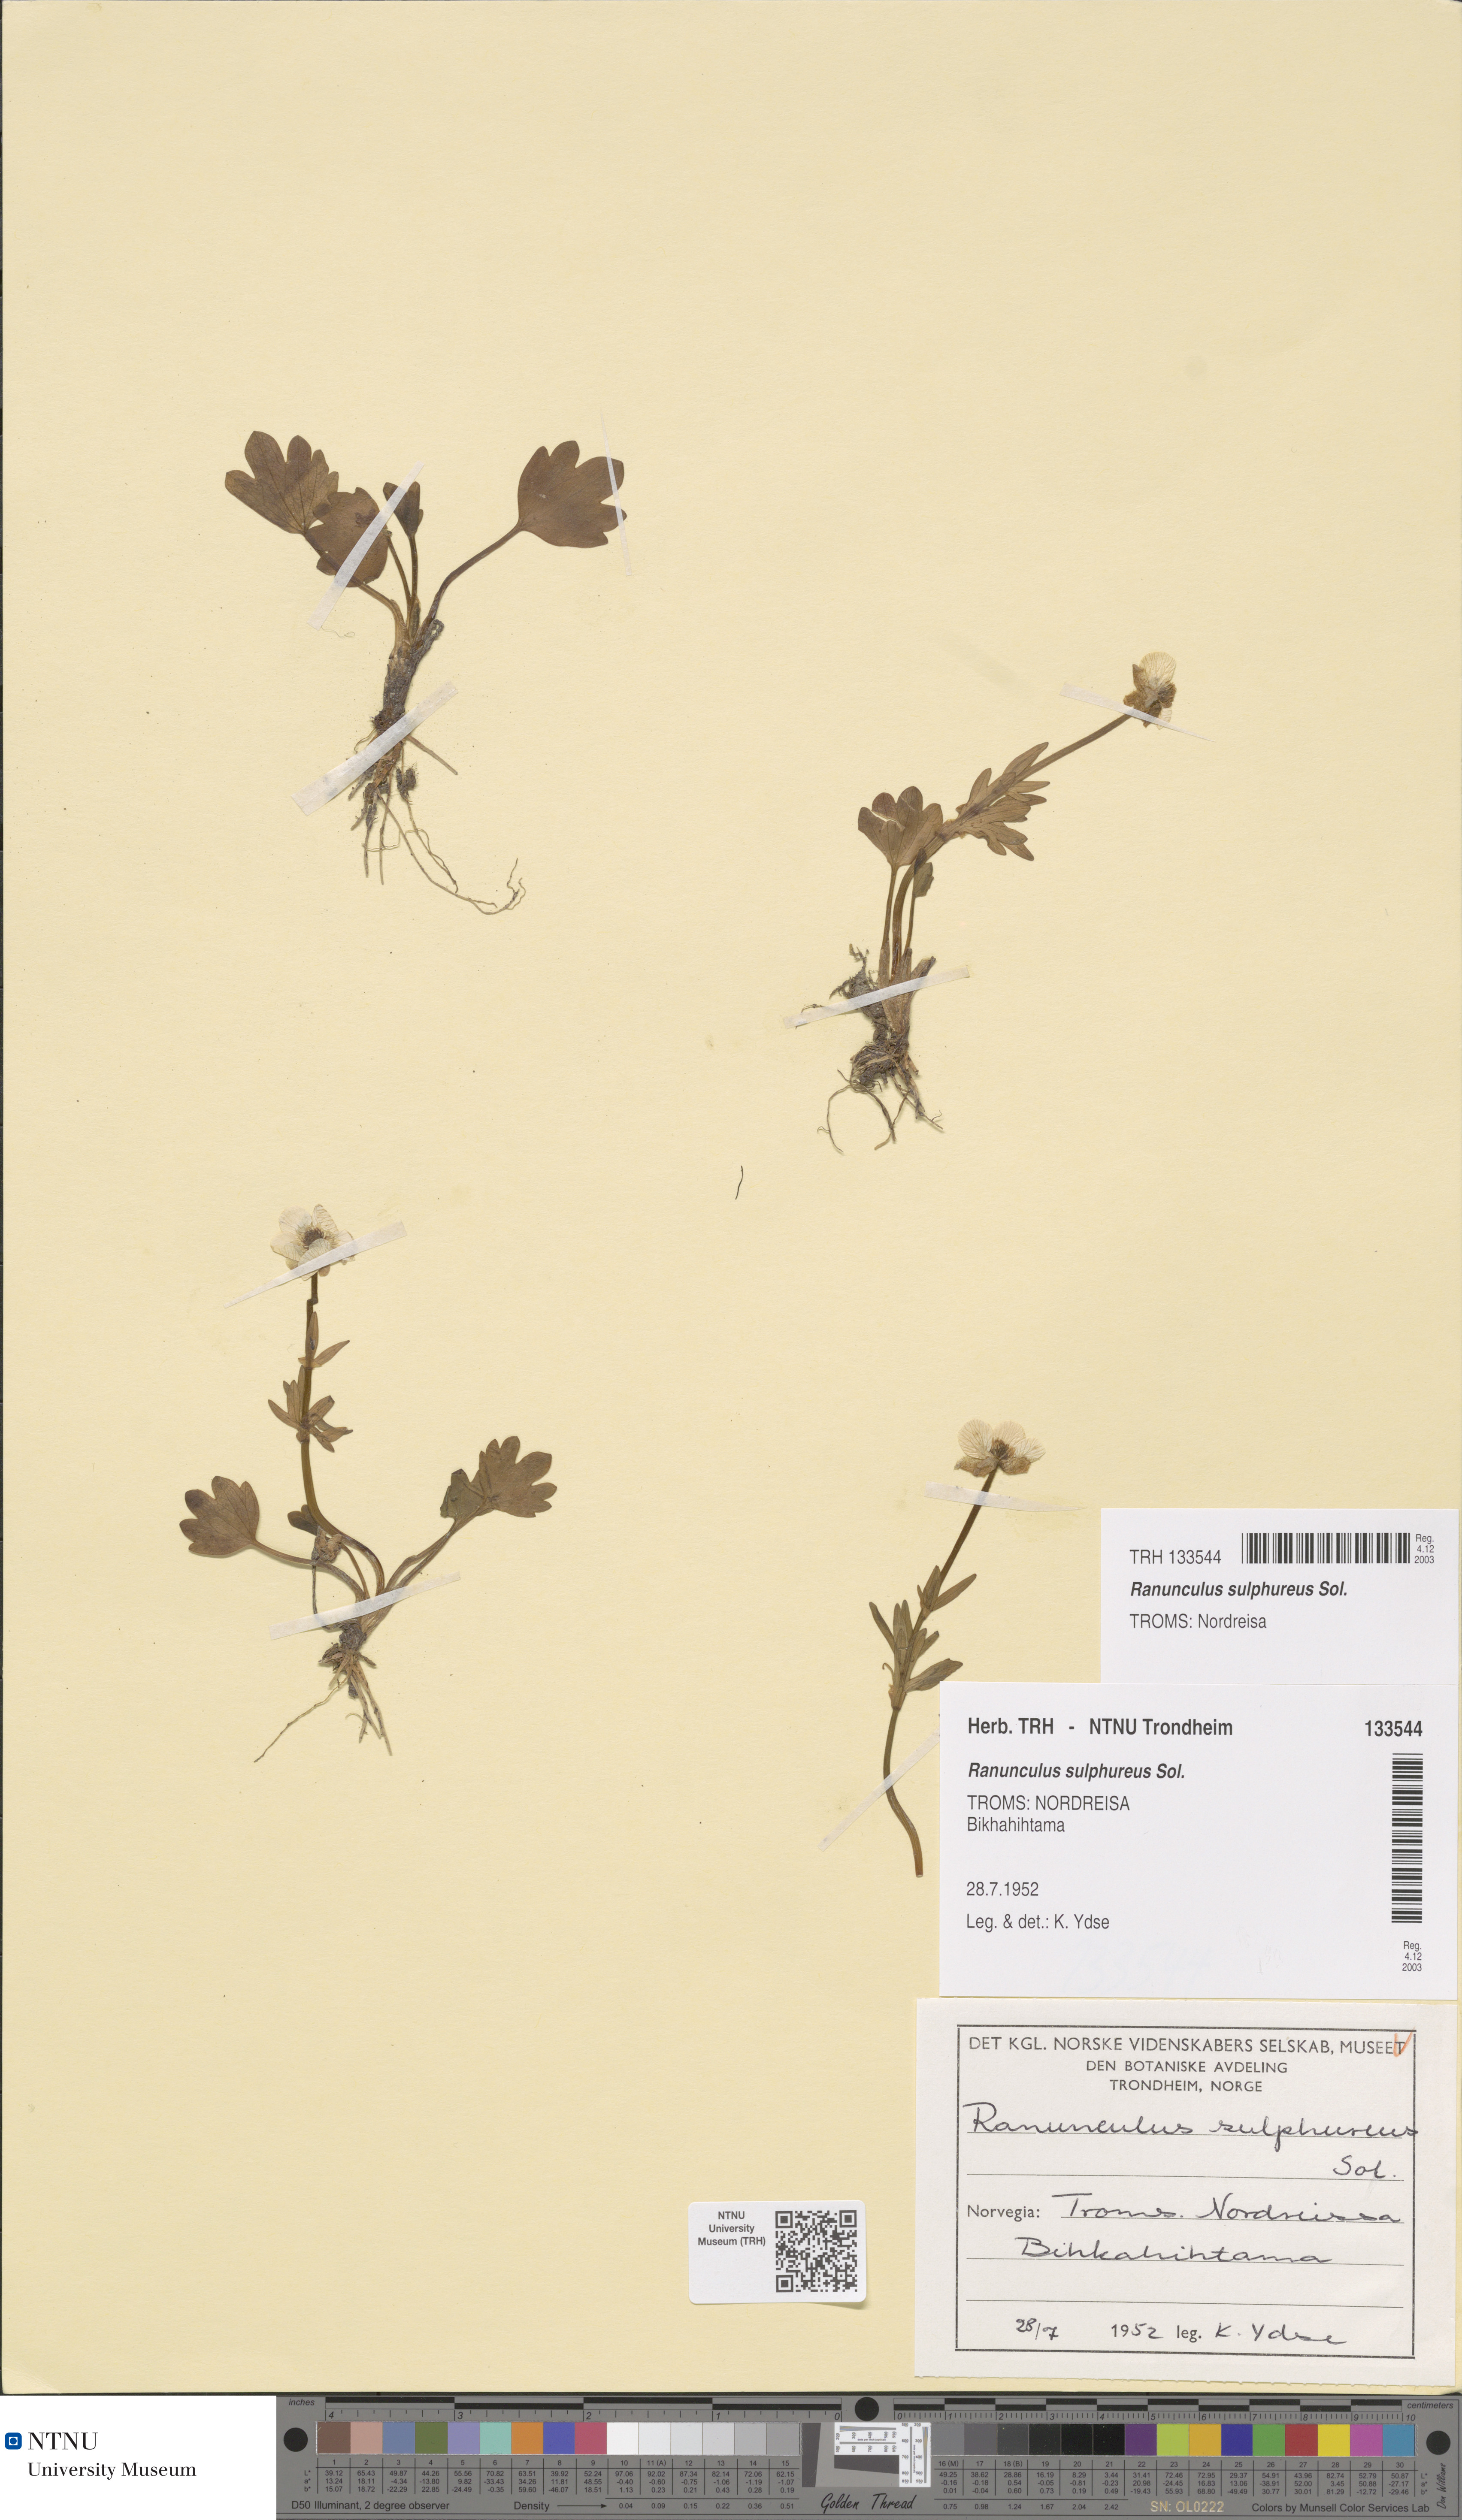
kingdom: Plantae
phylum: Tracheophyta
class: Magnoliopsida
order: Ranunculales
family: Ranunculaceae
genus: Ranunculus
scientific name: Ranunculus sulphureus
